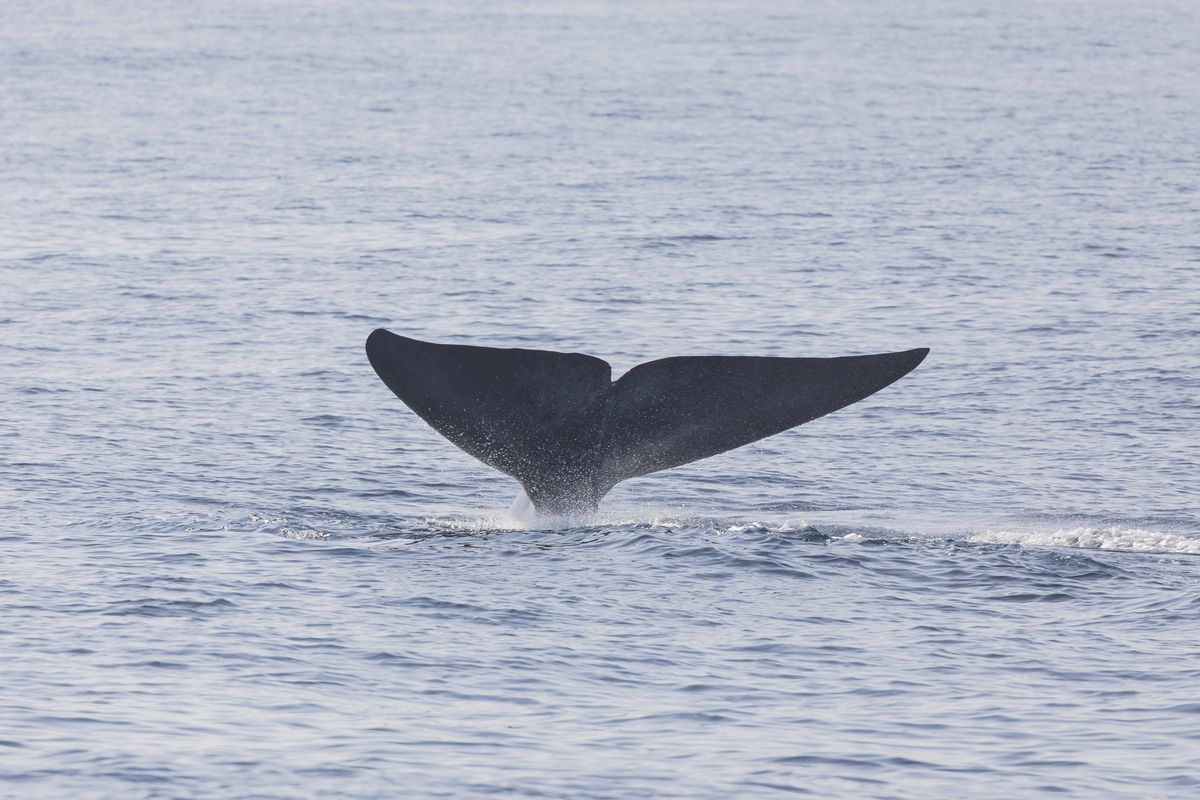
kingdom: Animalia
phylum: Chordata
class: Mammalia
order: Cetacea
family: Balaenopteridae
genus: Balaenoptera
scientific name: Balaenoptera musculus
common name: Blue whale
